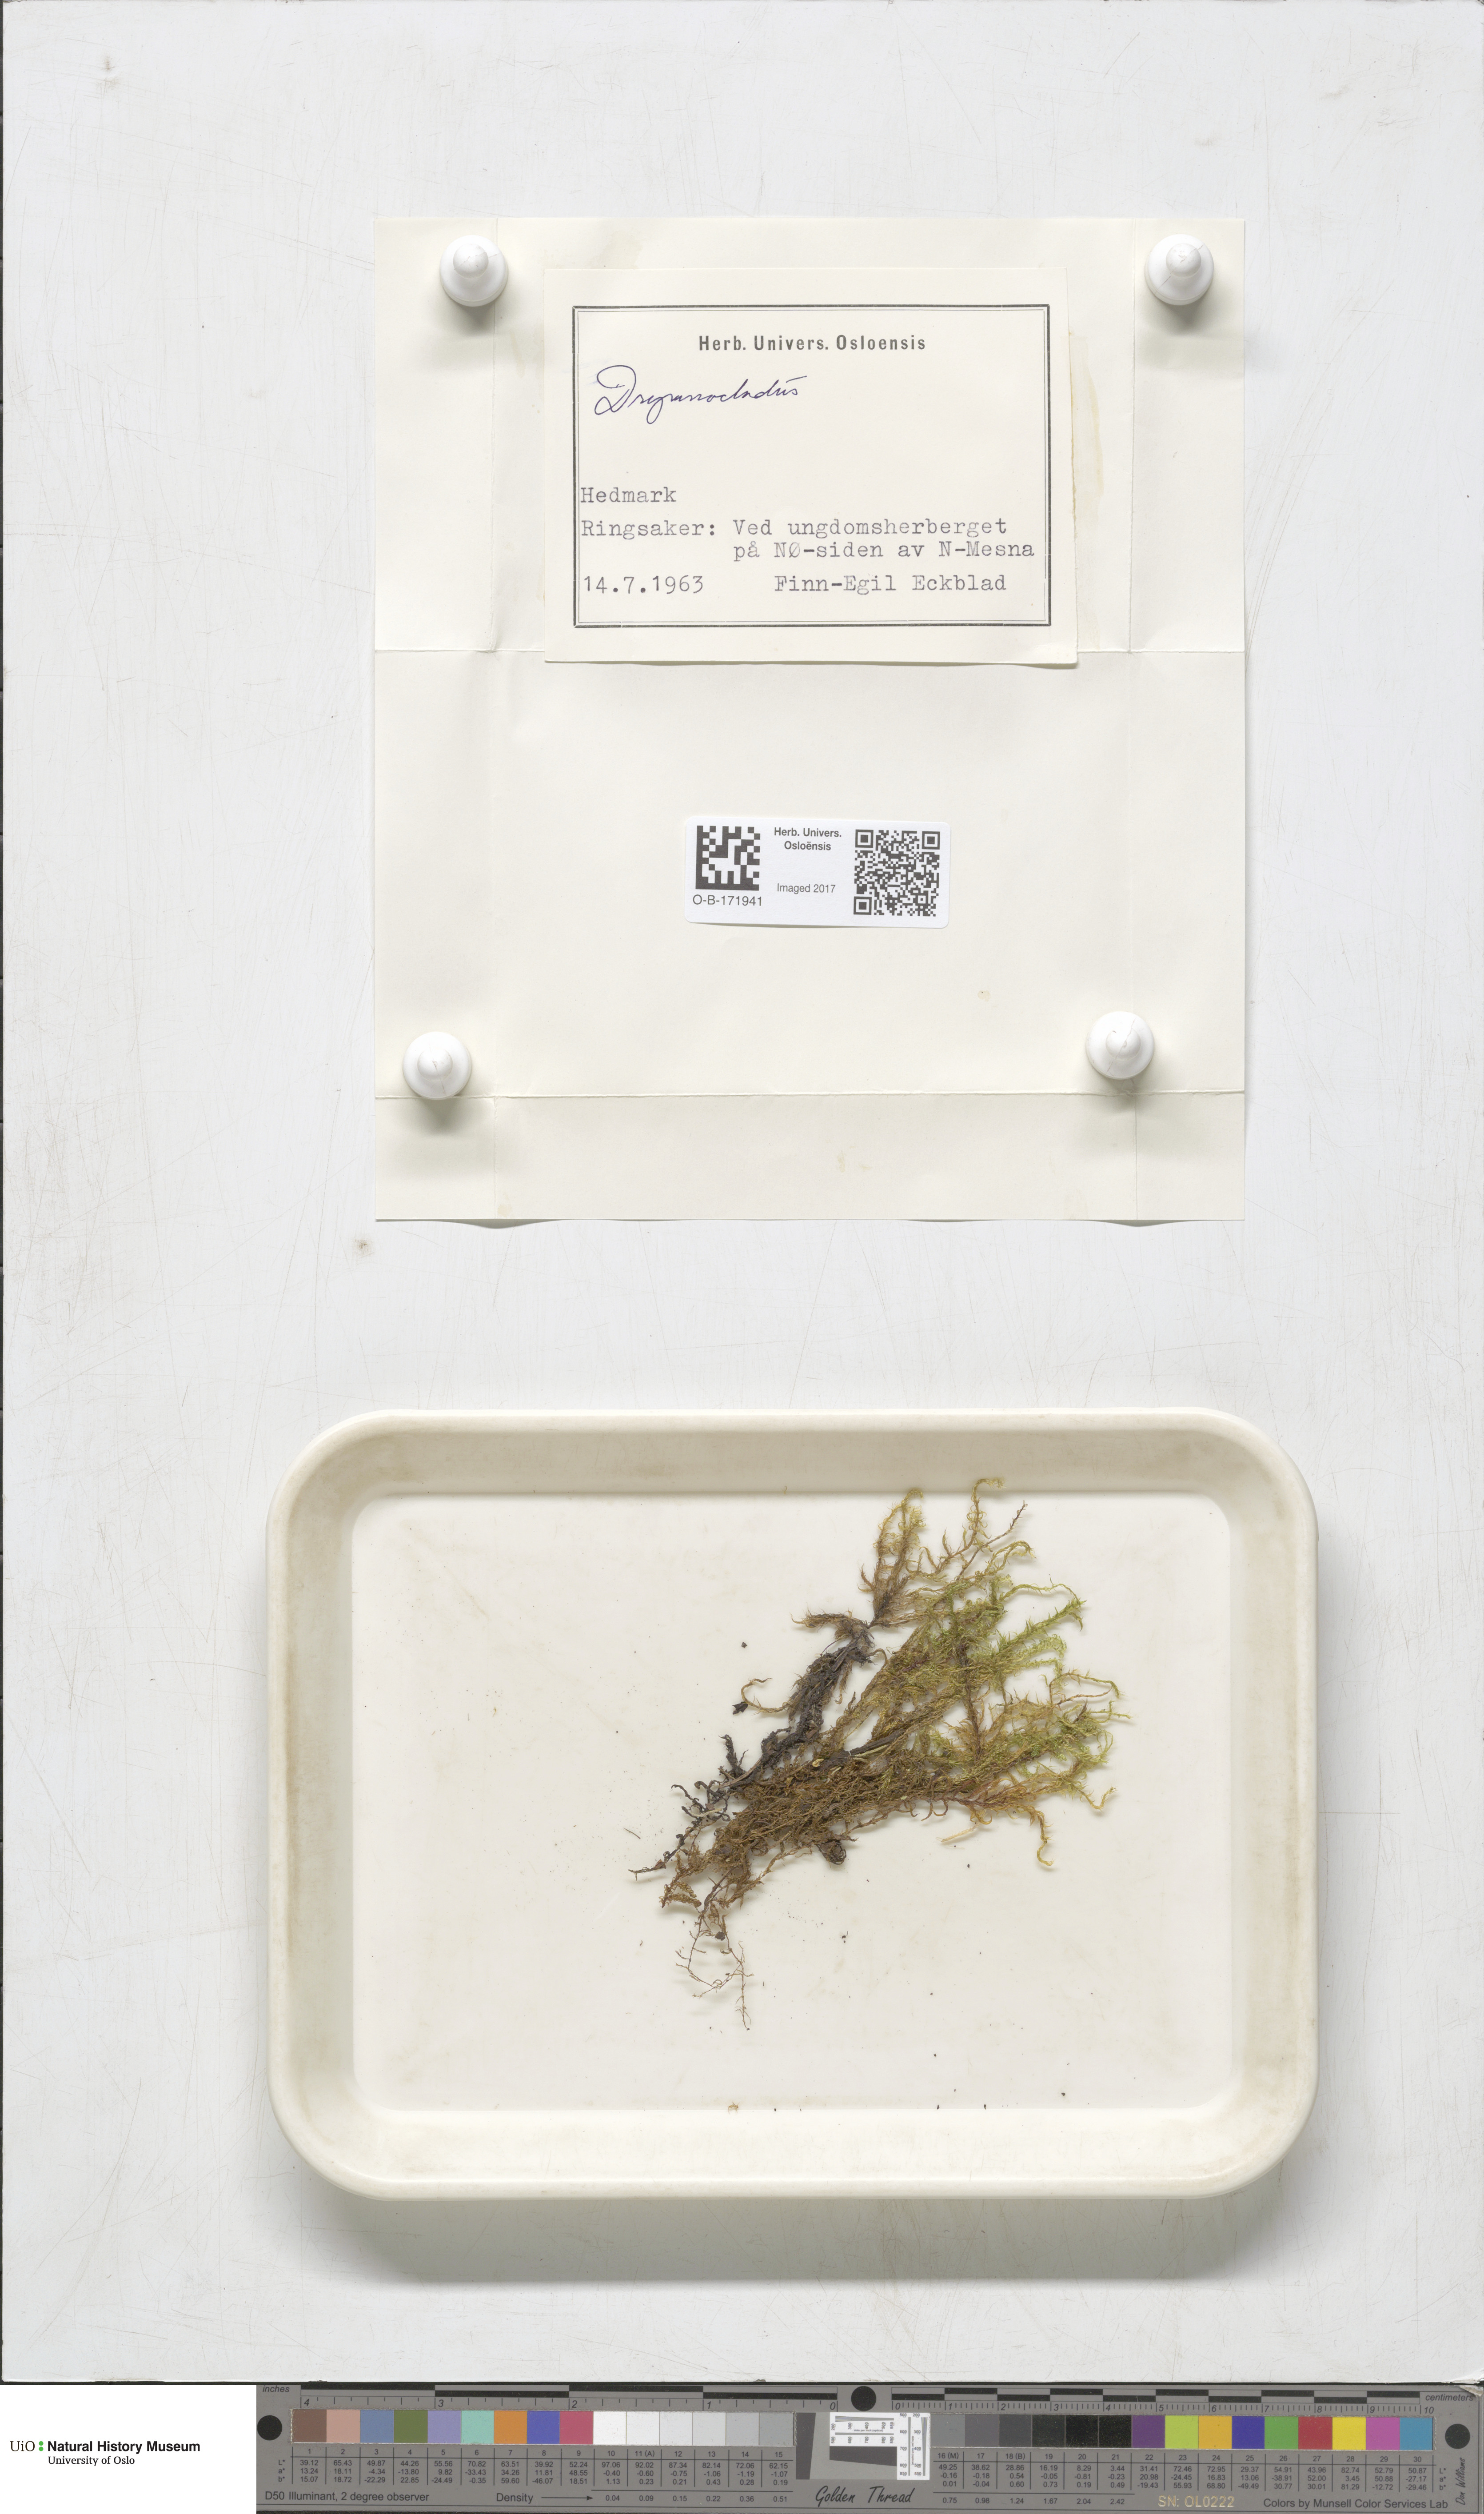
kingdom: Plantae
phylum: Bryophyta
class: Bryopsida
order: Hypnales
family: Amblystegiaceae
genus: Drepanocladus
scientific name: Drepanocladus sordidus
